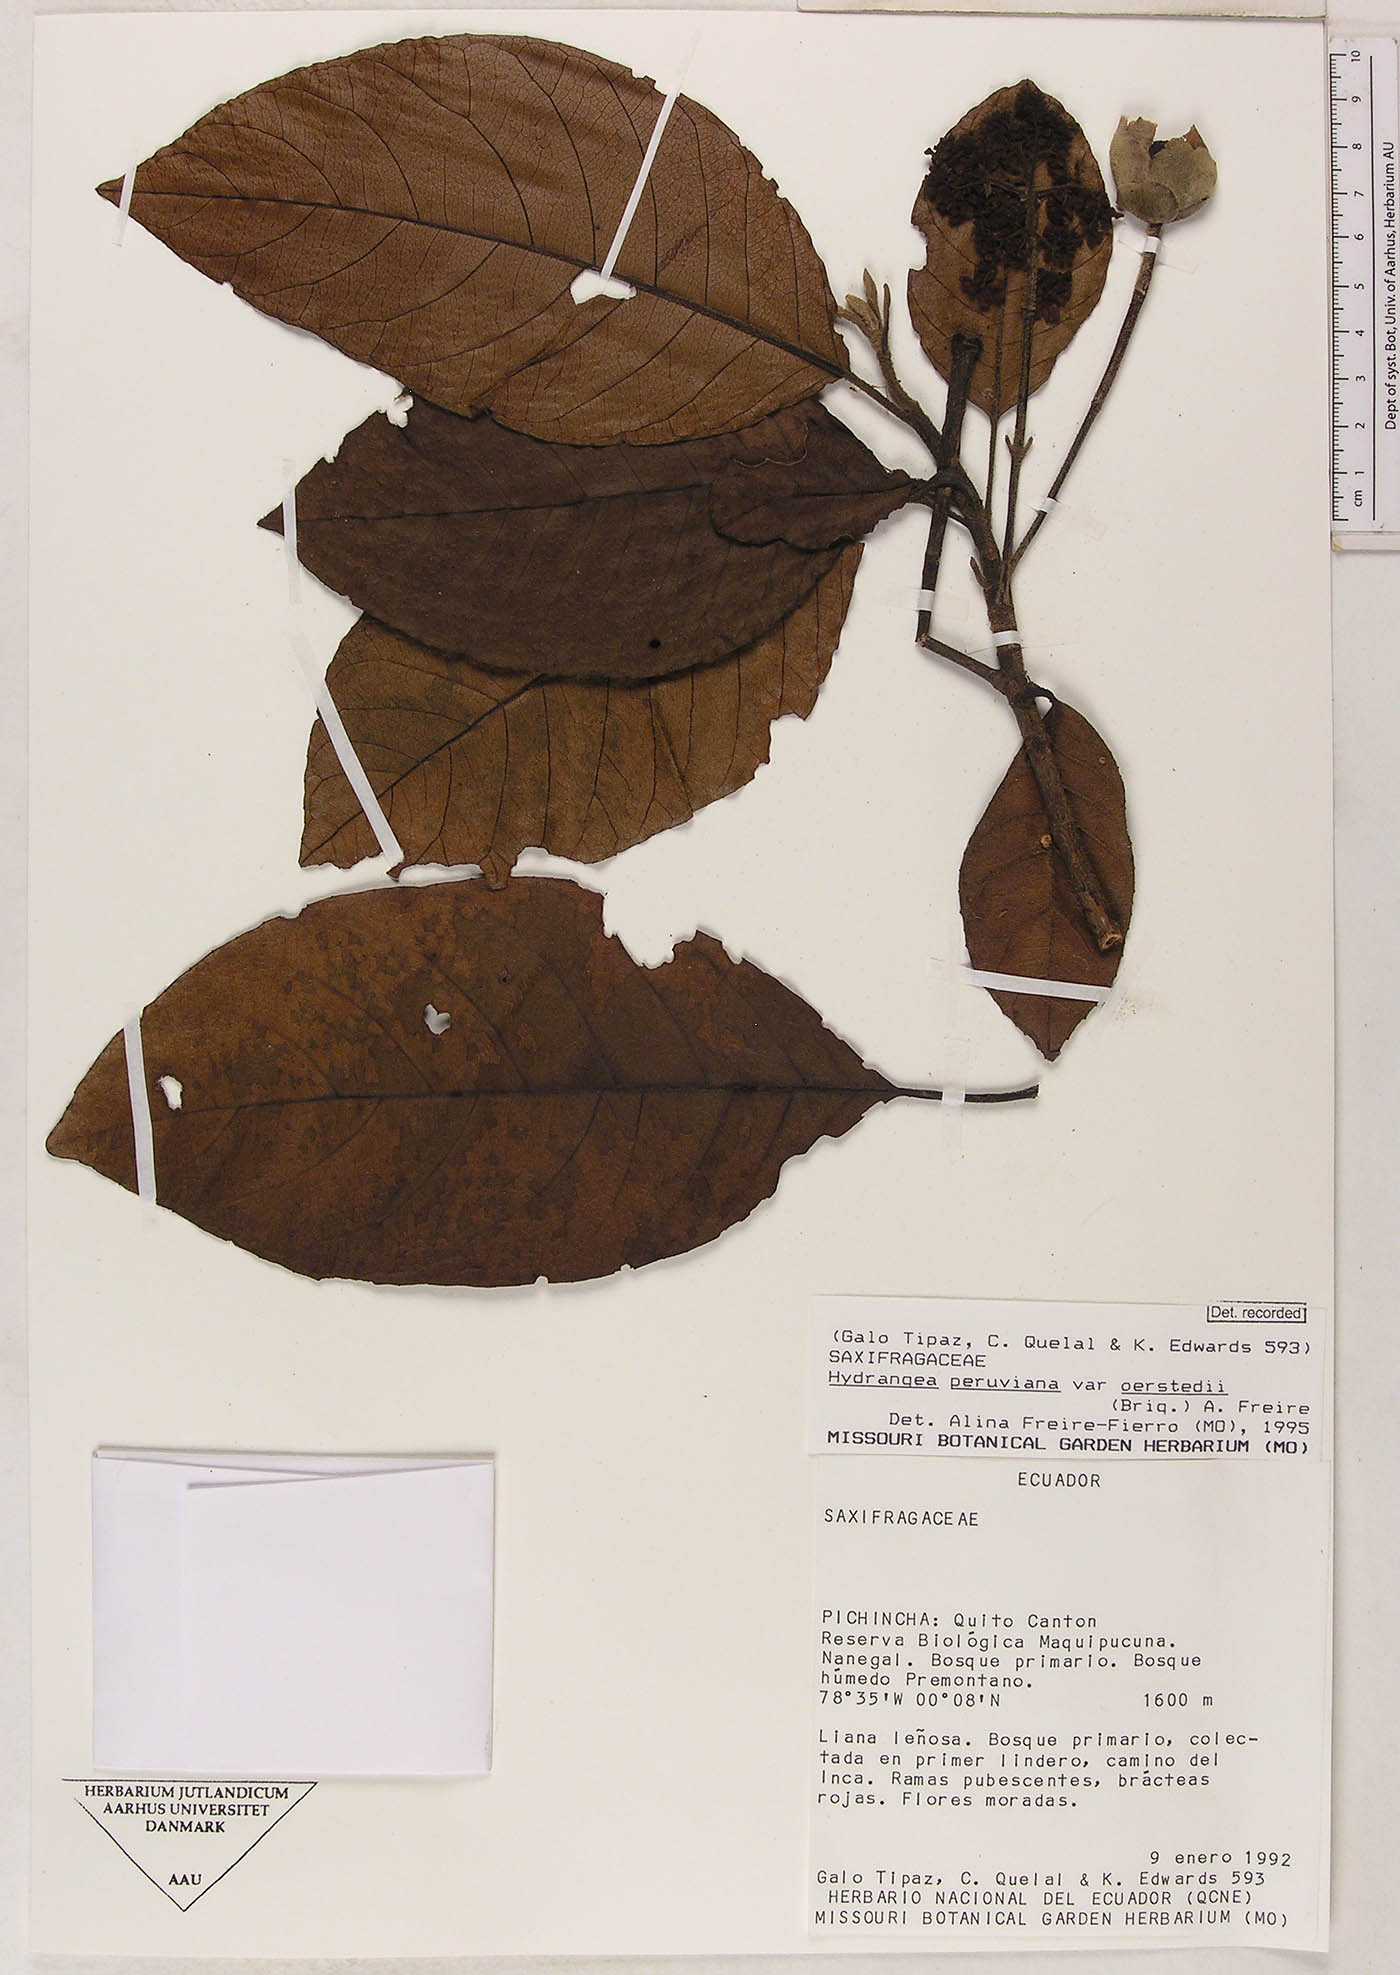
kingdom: Plantae
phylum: Tracheophyta
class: Magnoliopsida
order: Cornales
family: Hydrangeaceae
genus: Hydrangea
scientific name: Hydrangea oerstedii
